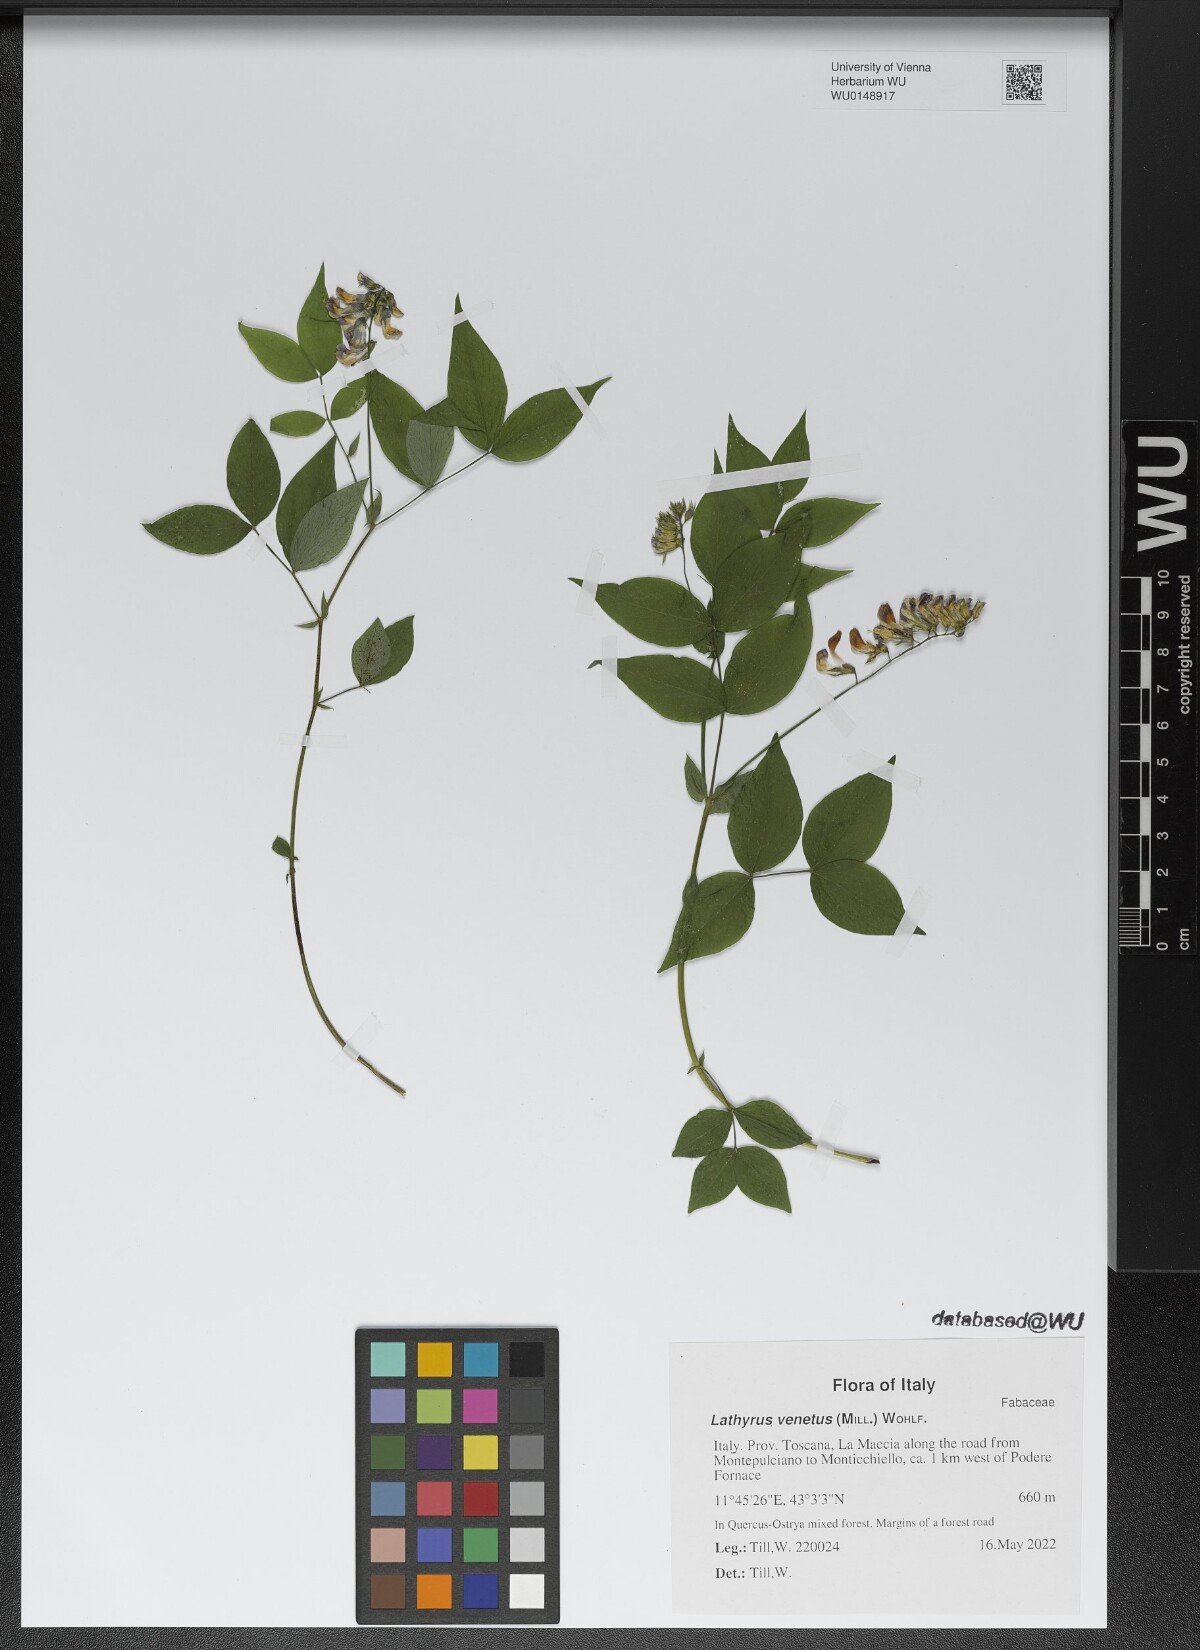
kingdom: Plantae
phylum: Tracheophyta
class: Magnoliopsida
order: Fabales
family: Fabaceae
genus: Lathyrus
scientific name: Lathyrus venetus
